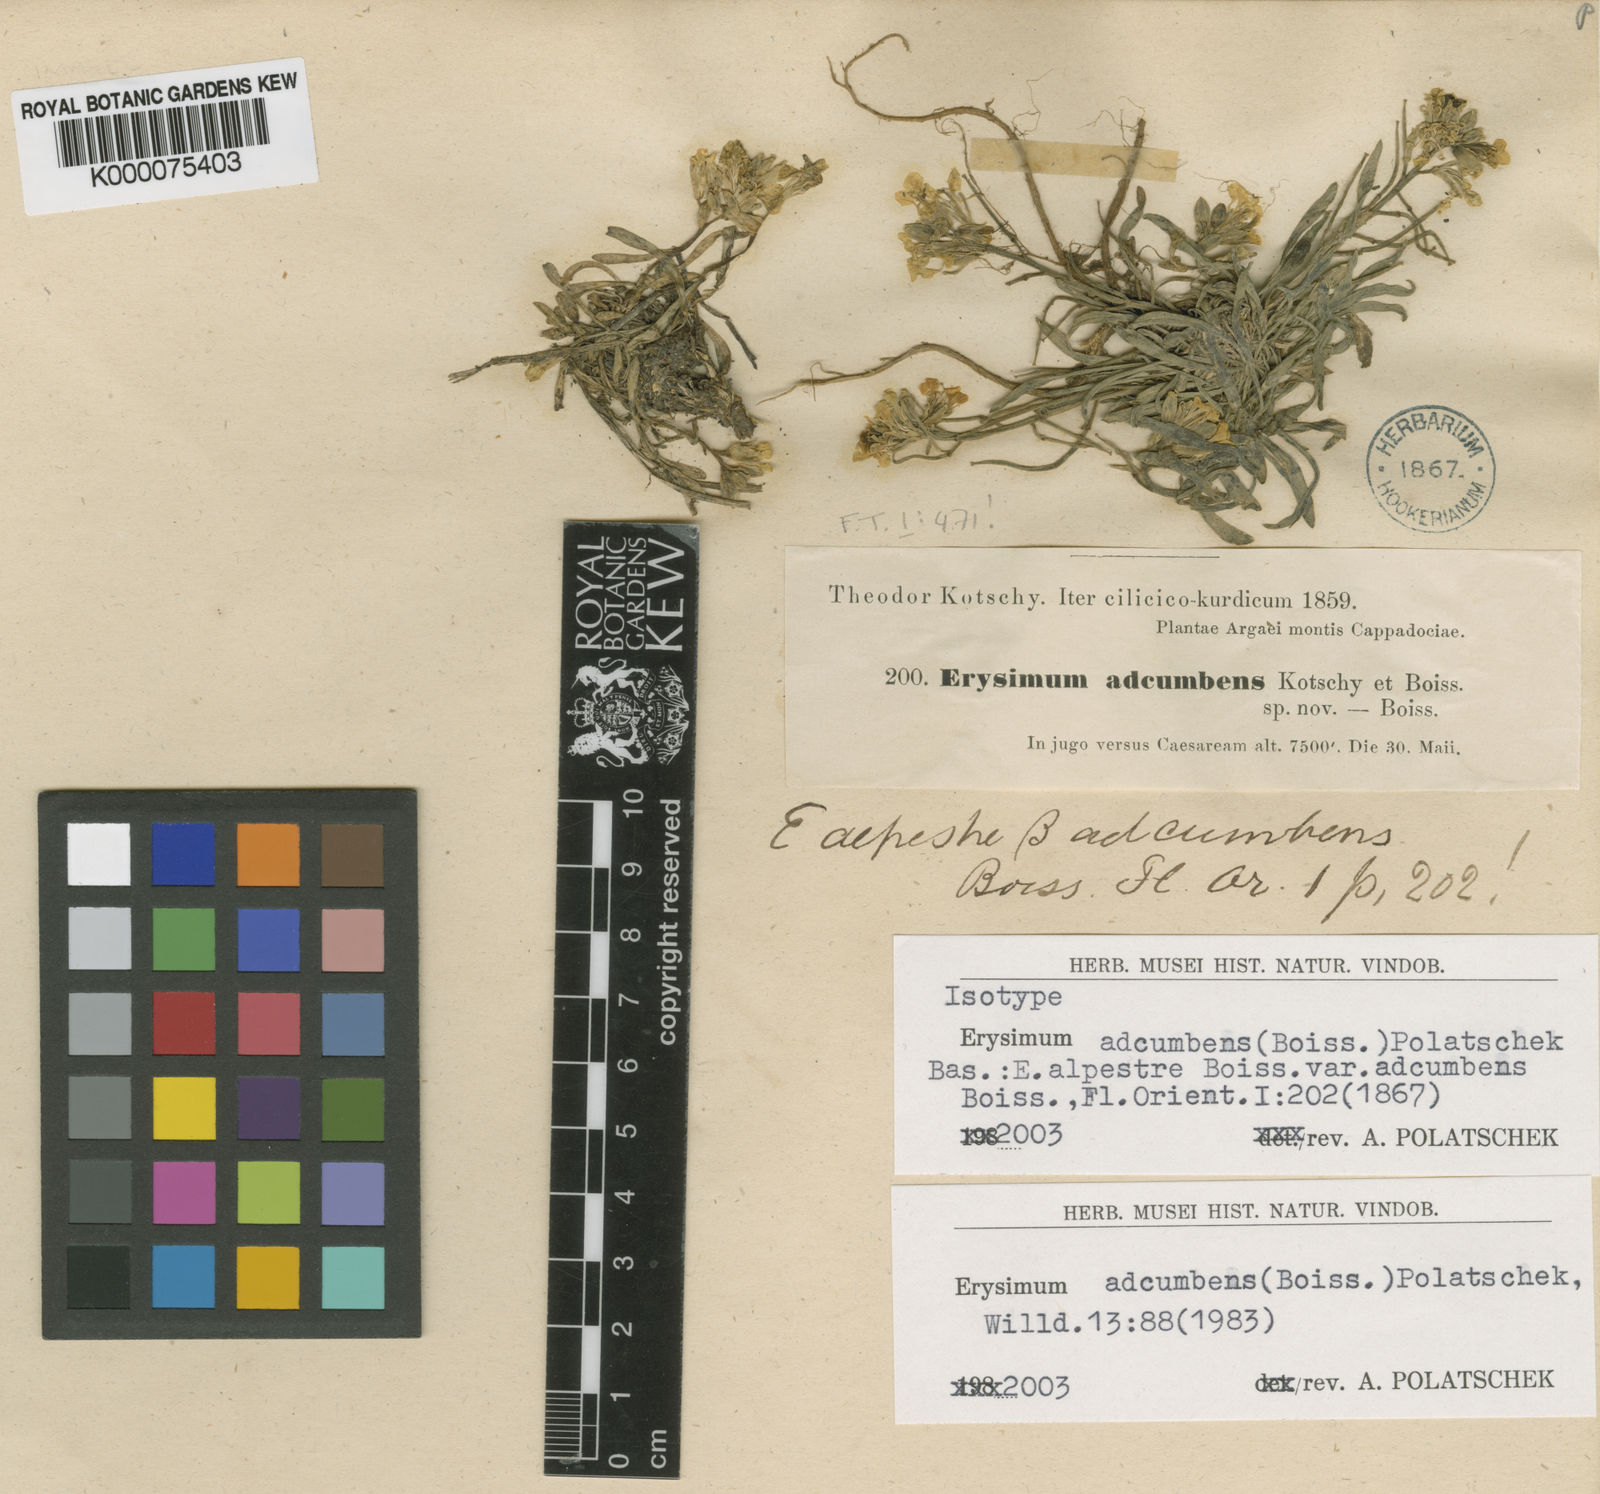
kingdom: Plantae
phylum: Tracheophyta
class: Magnoliopsida
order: Brassicales
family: Brassicaceae
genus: Erysimum
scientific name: Erysimum capitatum
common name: Western wallflower
